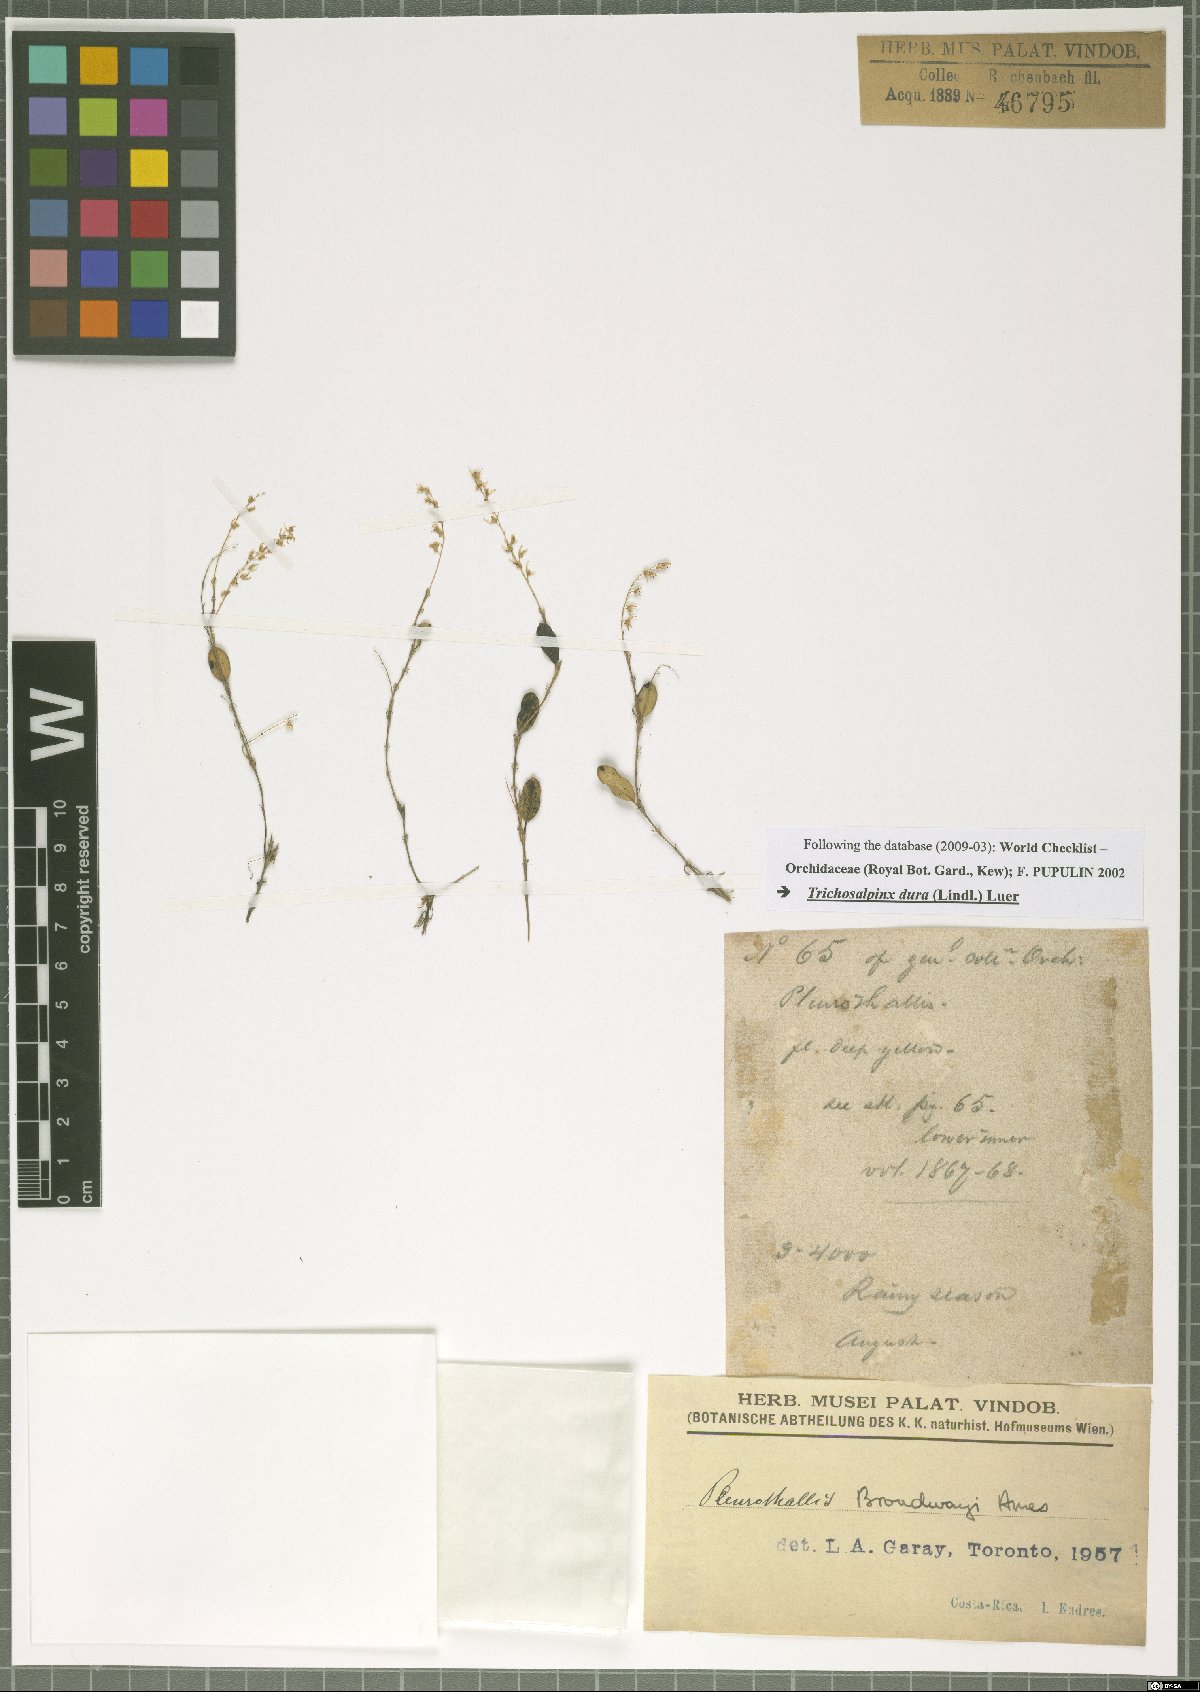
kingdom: Plantae
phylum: Tracheophyta
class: Liliopsida
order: Asparagales
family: Orchidaceae
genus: Trichosalpinx
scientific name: Trichosalpinx dura
